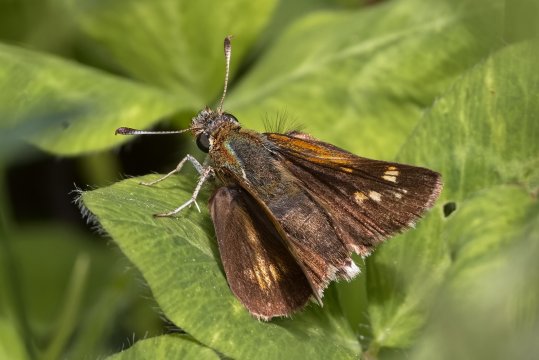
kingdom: Animalia
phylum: Arthropoda
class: Insecta
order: Lepidoptera
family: Hesperiidae
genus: Polites
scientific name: Polites coras
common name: Peck's Skipper
